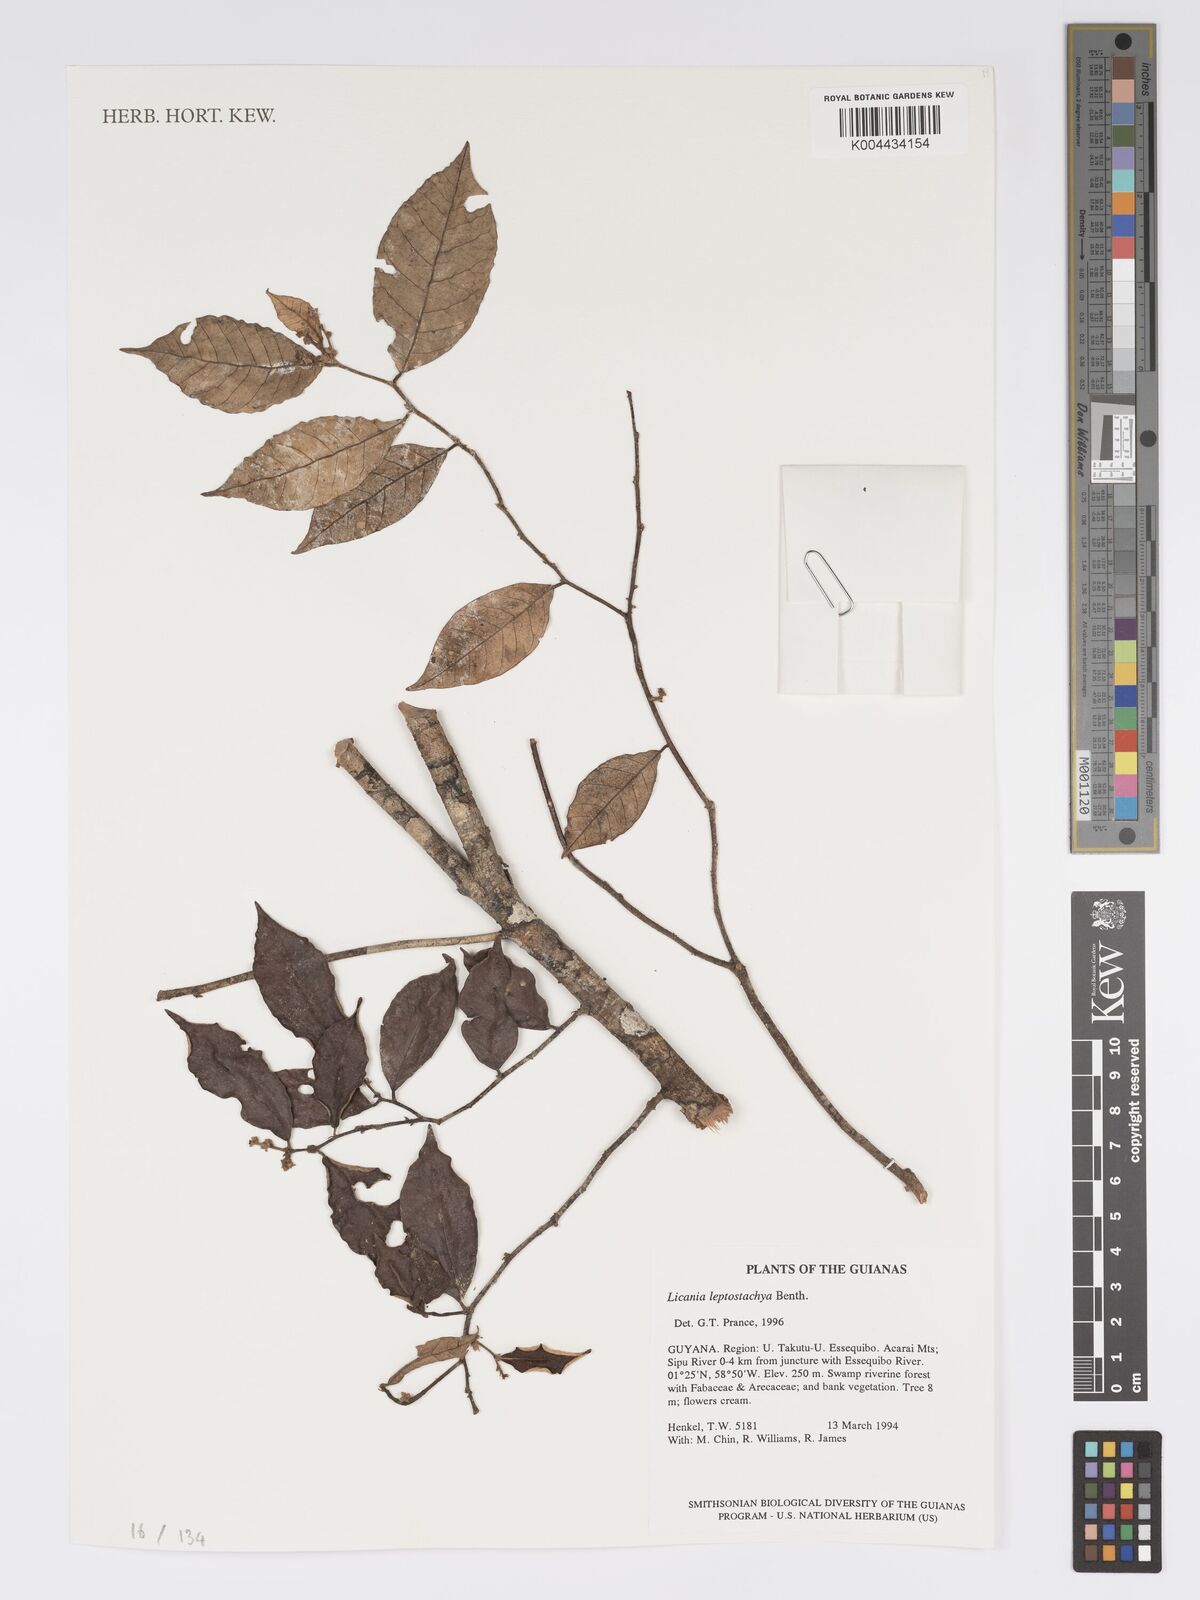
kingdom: Plantae
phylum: Tracheophyta
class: Magnoliopsida
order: Malpighiales
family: Chrysobalanaceae
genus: Licania
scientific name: Licania leptostachya
